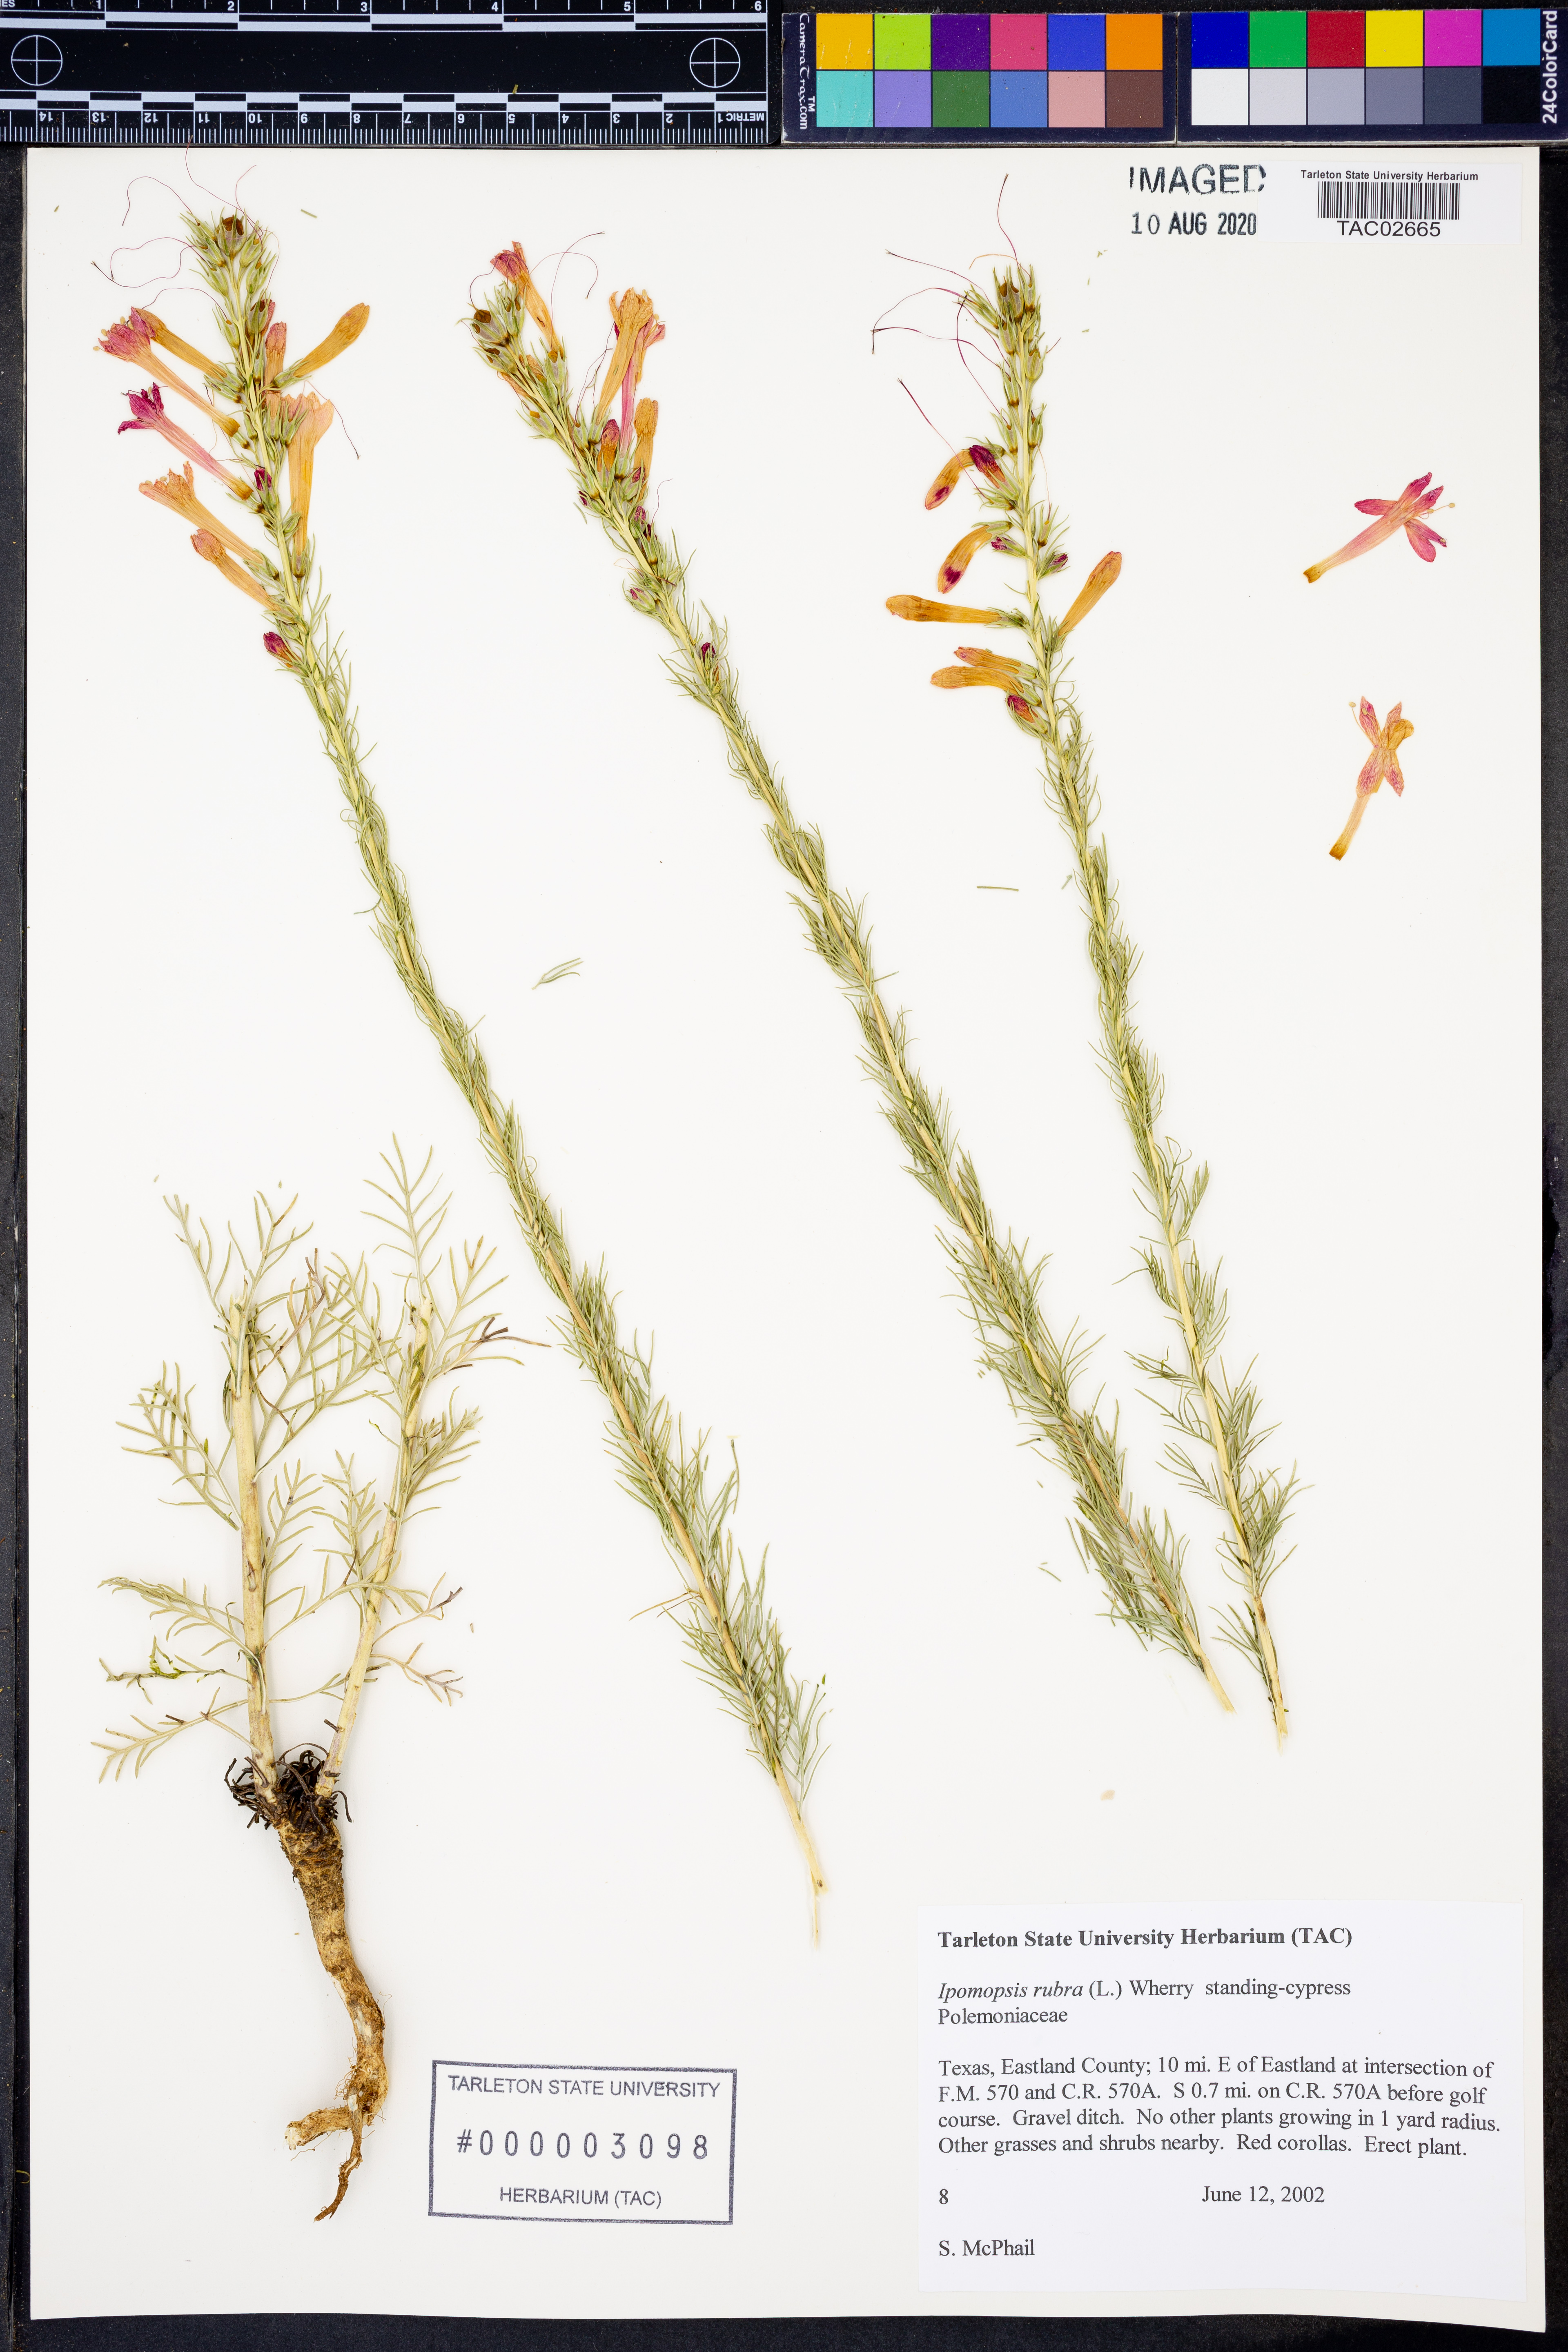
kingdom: Plantae
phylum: Tracheophyta
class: Magnoliopsida
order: Ericales
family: Polemoniaceae
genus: Ipomopsis
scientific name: Ipomopsis rubra
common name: Skyrocket
